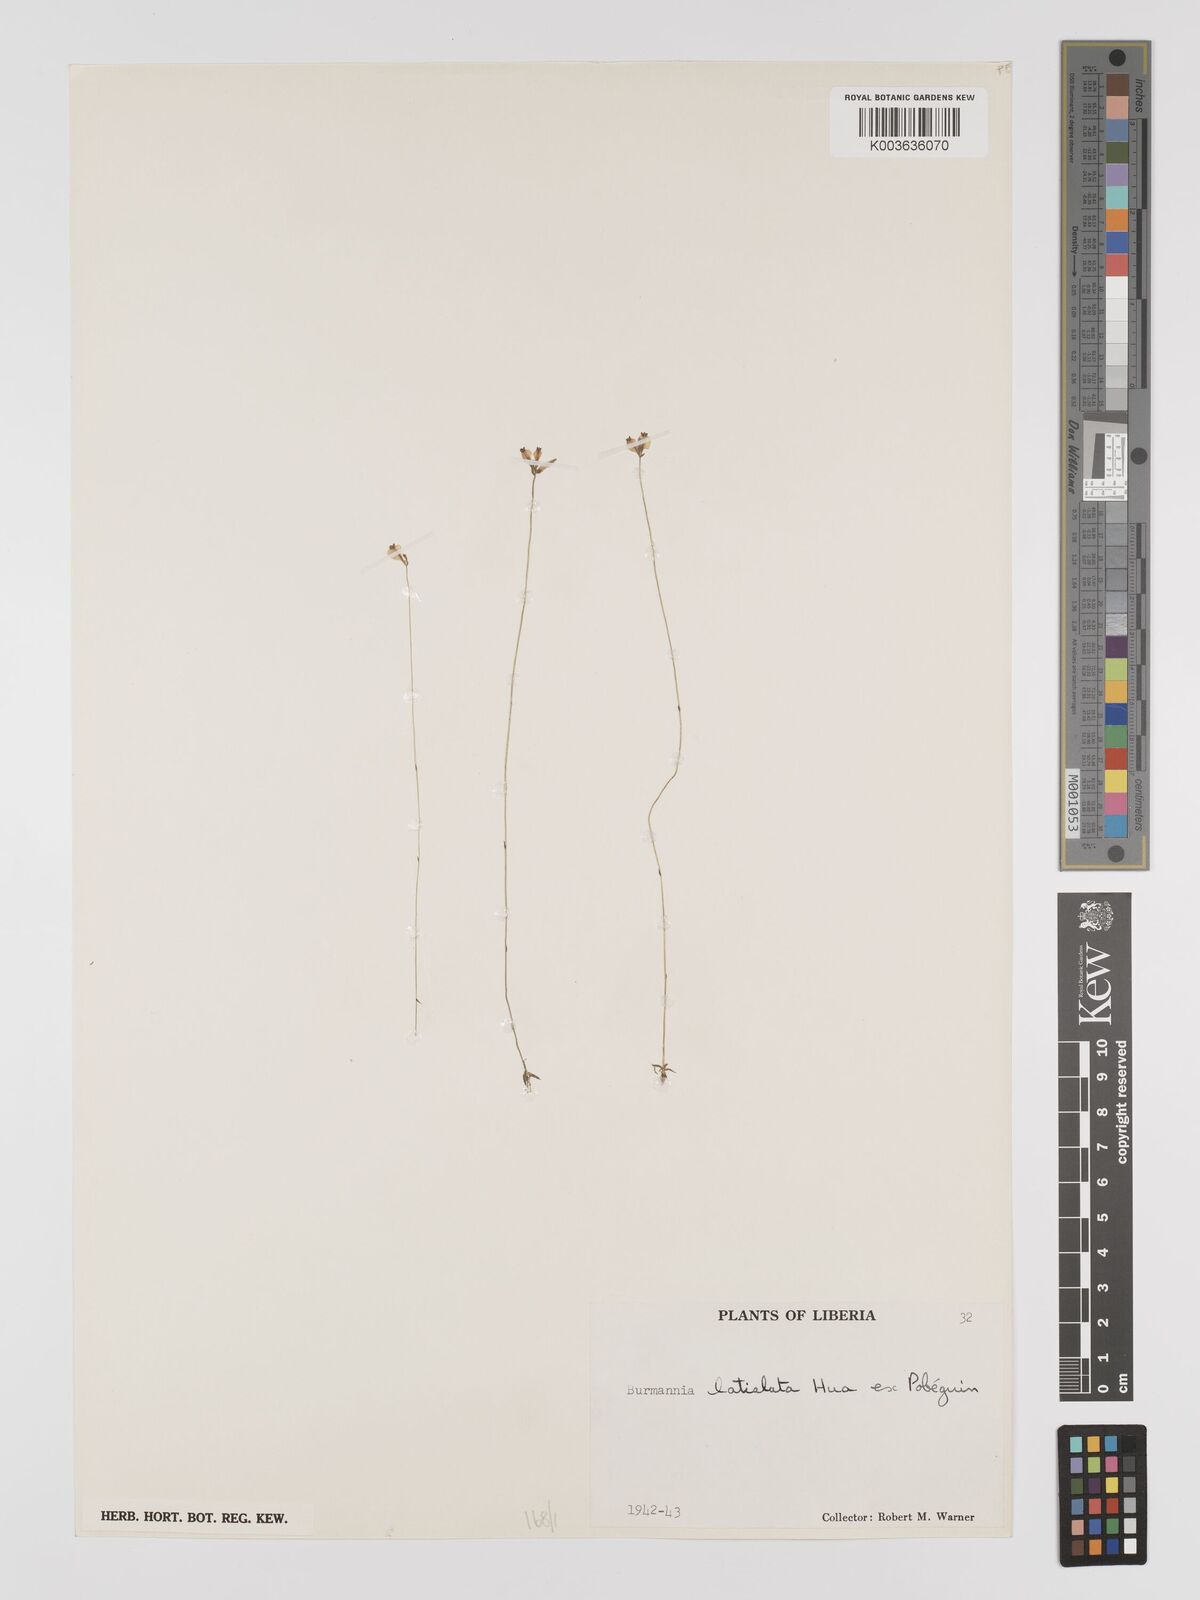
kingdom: Plantae
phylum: Tracheophyta
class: Liliopsida
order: Dioscoreales
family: Burmanniaceae
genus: Burmannia
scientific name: Burmannia madagascariensis
